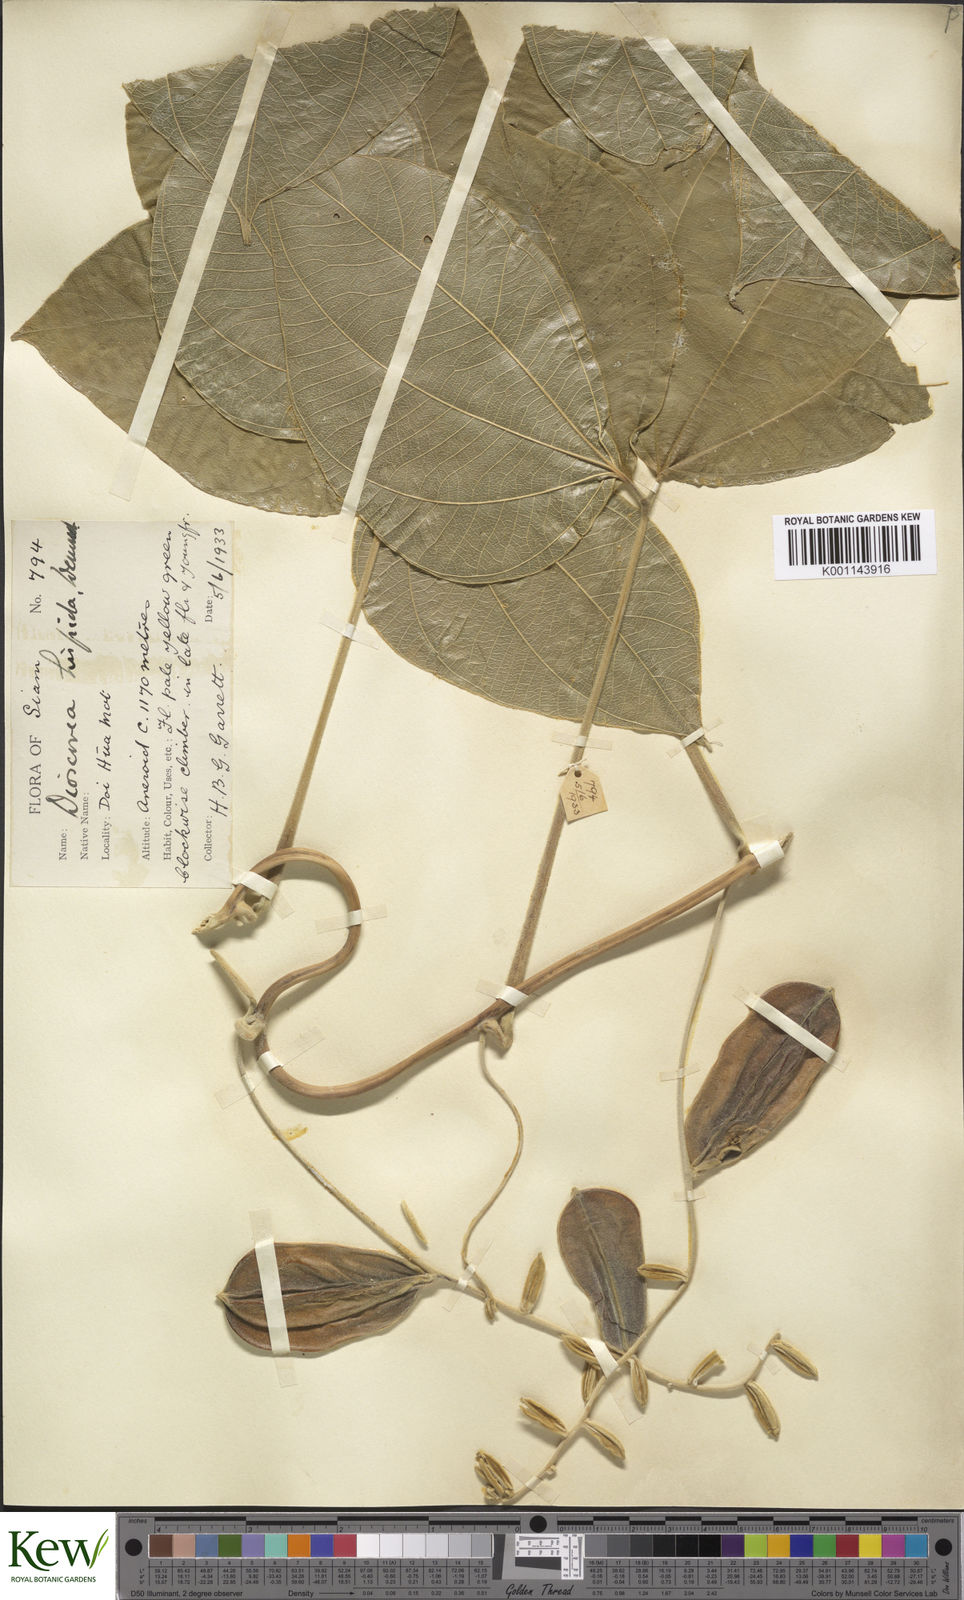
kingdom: Plantae
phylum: Tracheophyta
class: Liliopsida
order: Dioscoreales
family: Dioscoreaceae
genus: Dioscorea
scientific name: Dioscorea hispida
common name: Asiatic bitter yam
